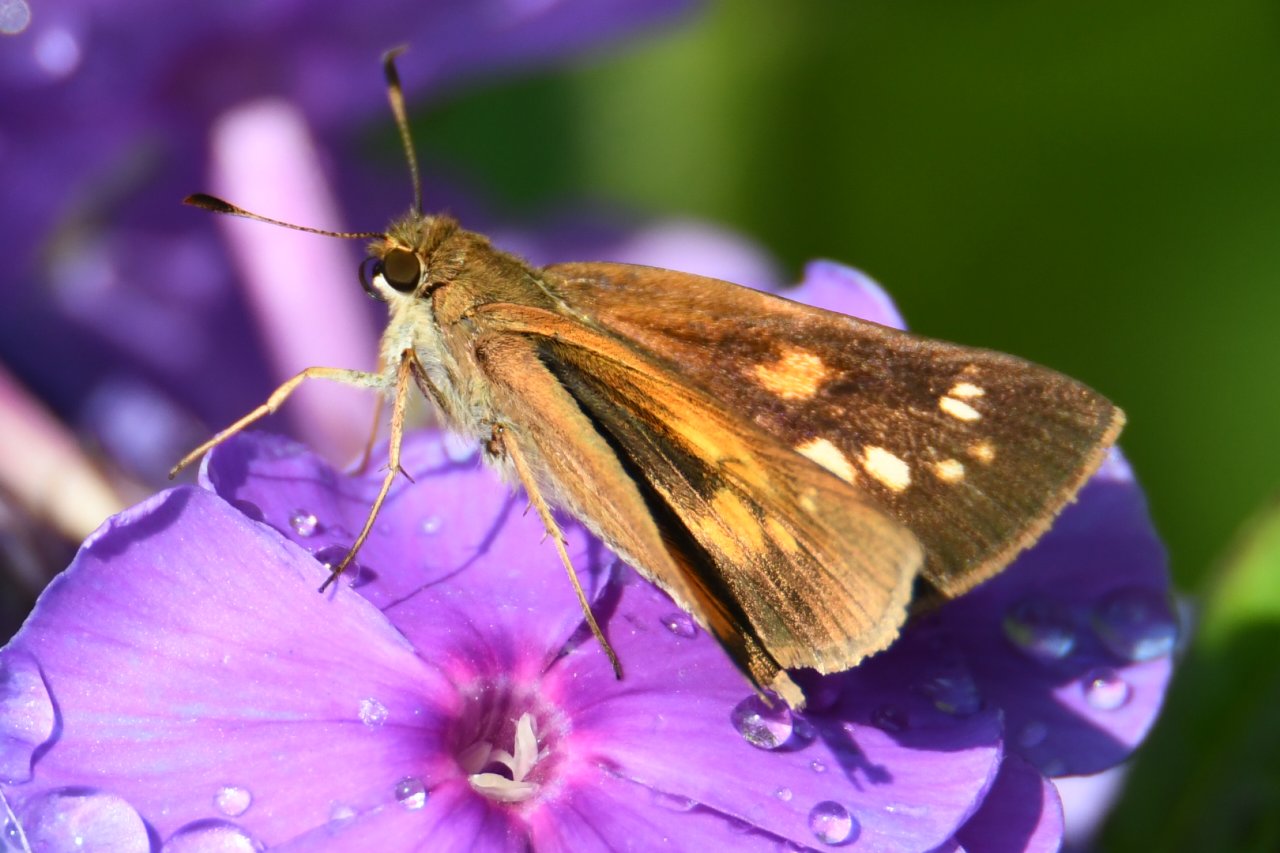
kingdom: Animalia
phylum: Arthropoda
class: Insecta
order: Lepidoptera
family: Hesperiidae
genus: Poanes
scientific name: Poanes viator
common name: Broad-winged Skipper
